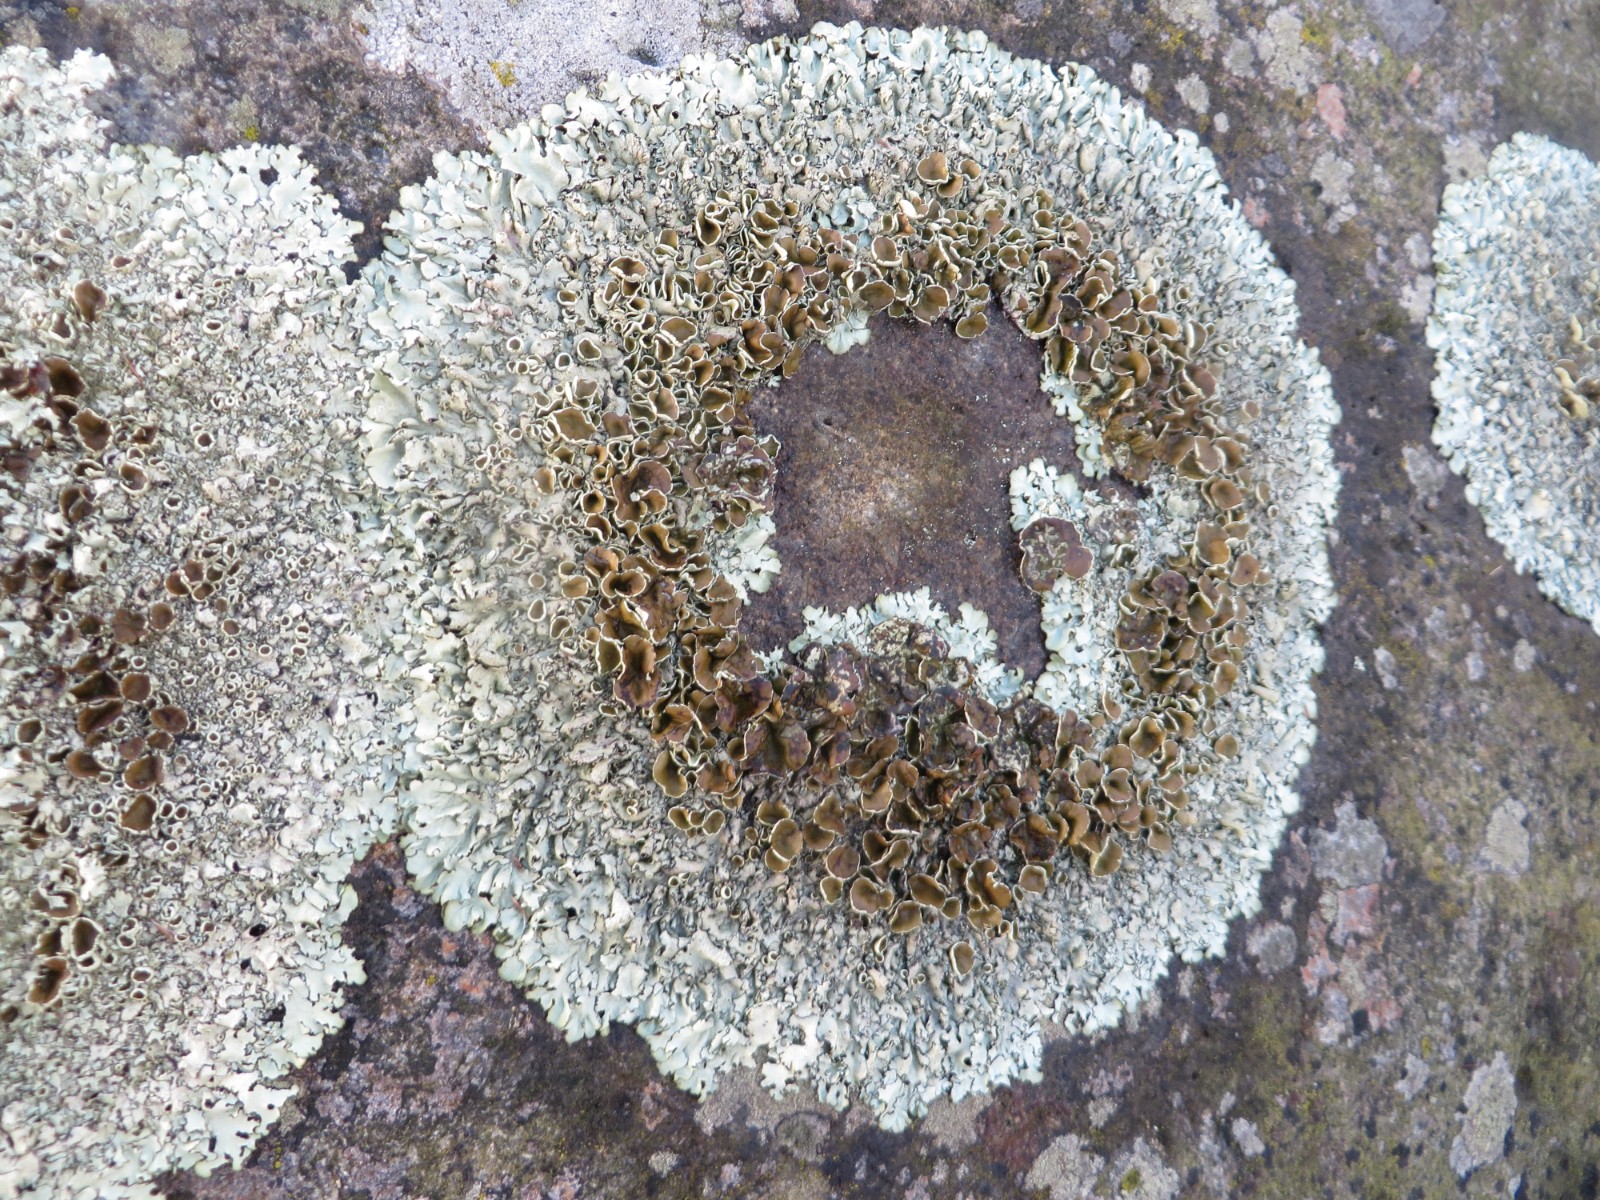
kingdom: Fungi
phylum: Ascomycota
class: Lecanoromycetes
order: Lecanorales
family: Parmeliaceae
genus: Xanthoparmelia
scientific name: Xanthoparmelia stenophylla
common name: Shingled rock shield
